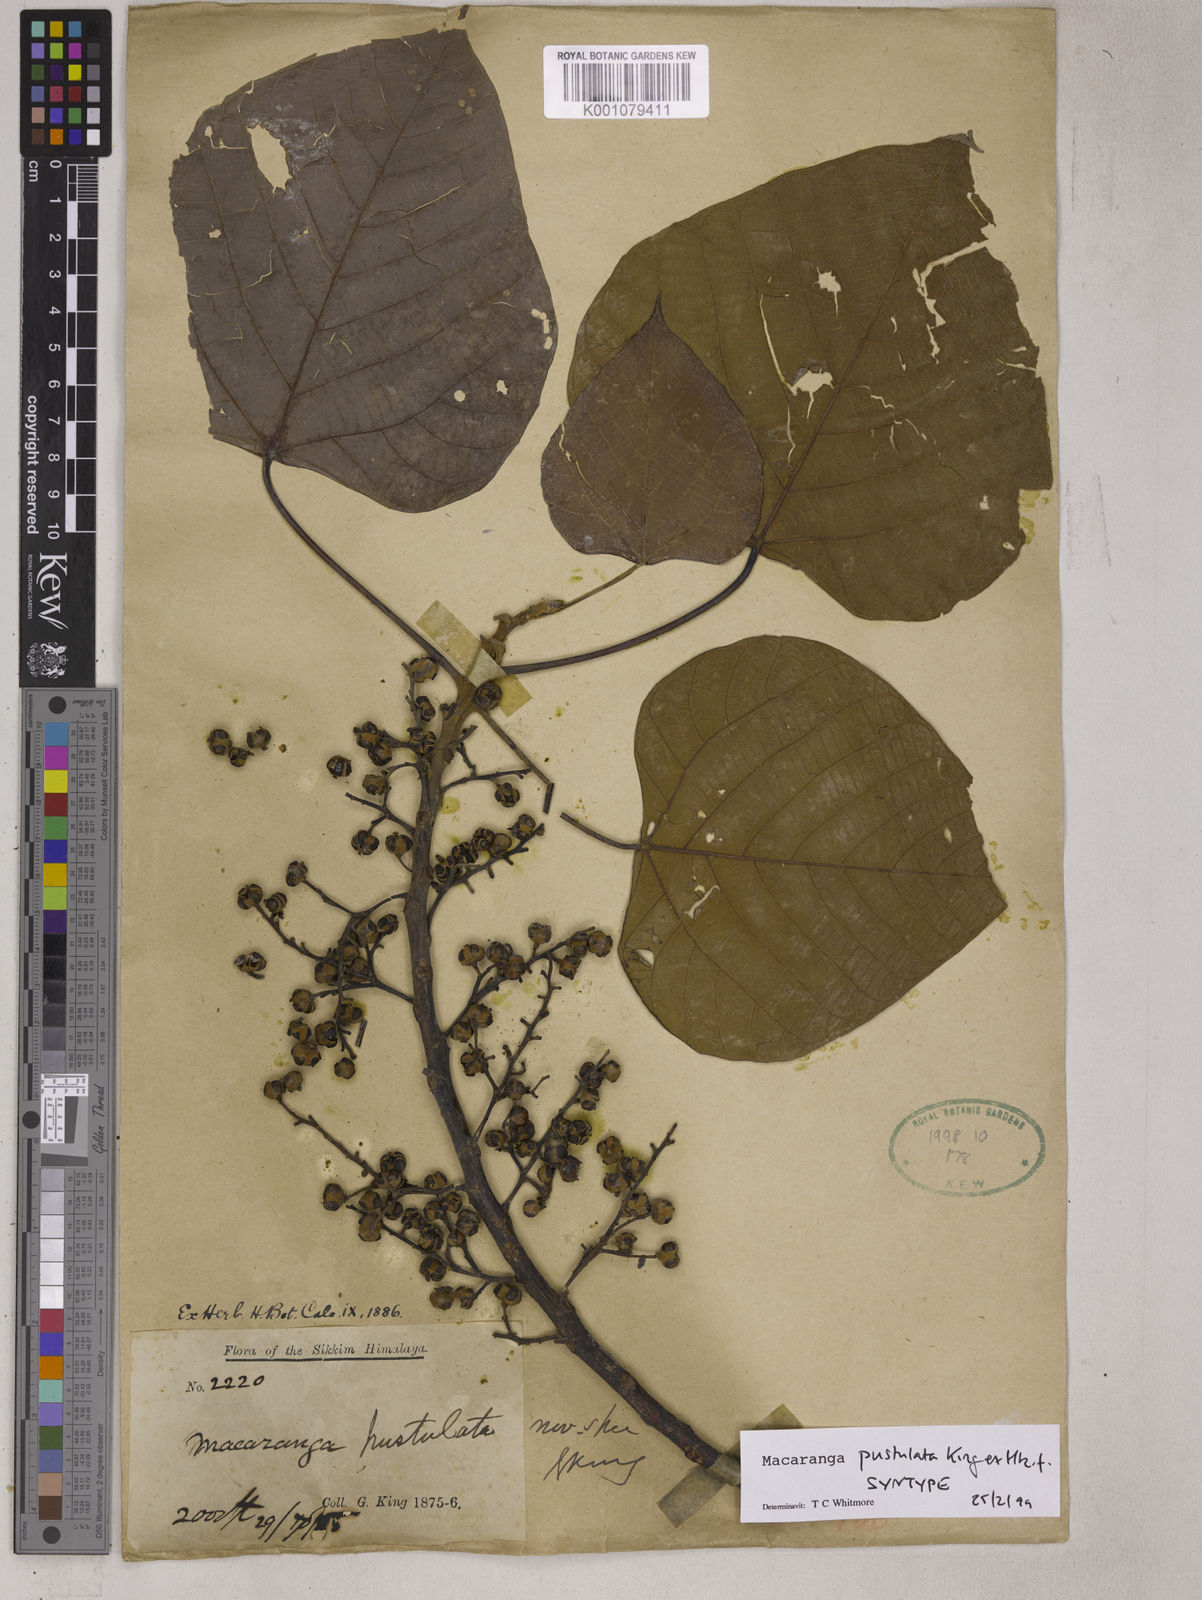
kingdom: Plantae
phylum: Tracheophyta
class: Magnoliopsida
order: Malpighiales
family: Euphorbiaceae
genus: Macaranga
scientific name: Macaranga denticulata
